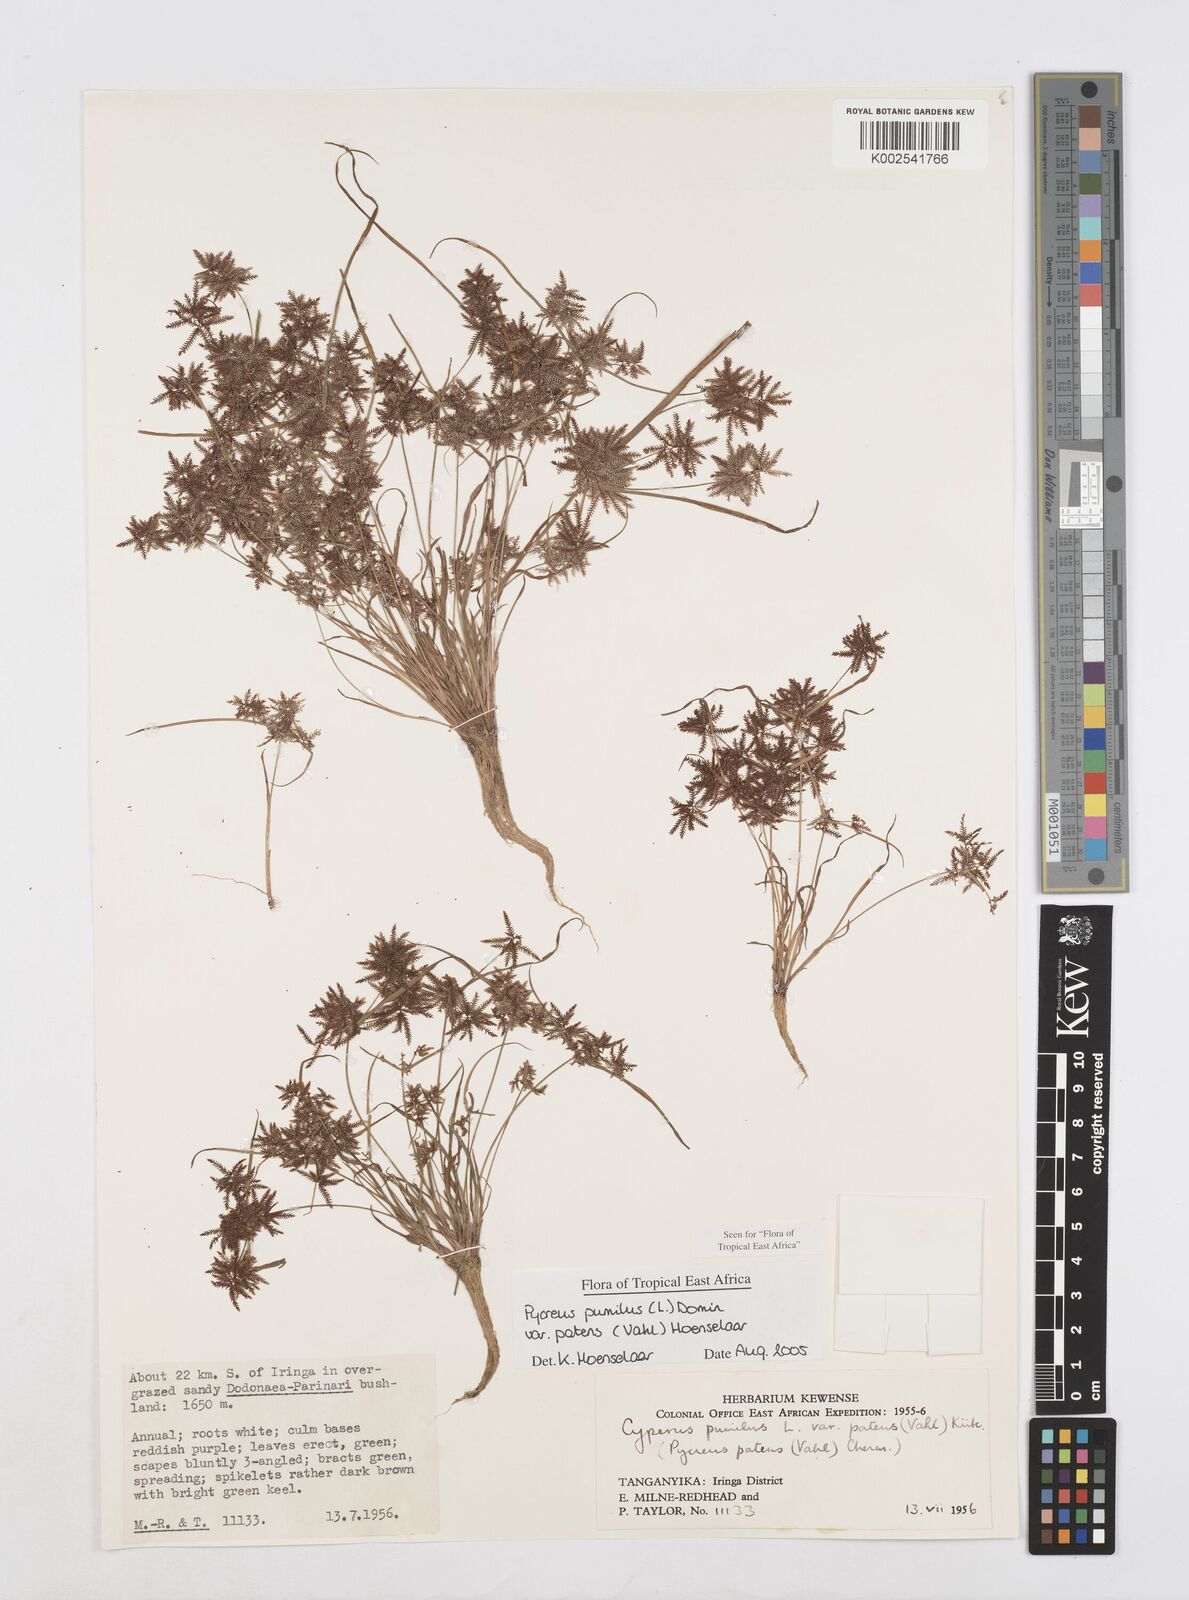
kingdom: Plantae
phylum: Tracheophyta
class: Liliopsida
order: Poales
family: Cyperaceae
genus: Cyperus
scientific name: Cyperus pumilus
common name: Low flatsedge
